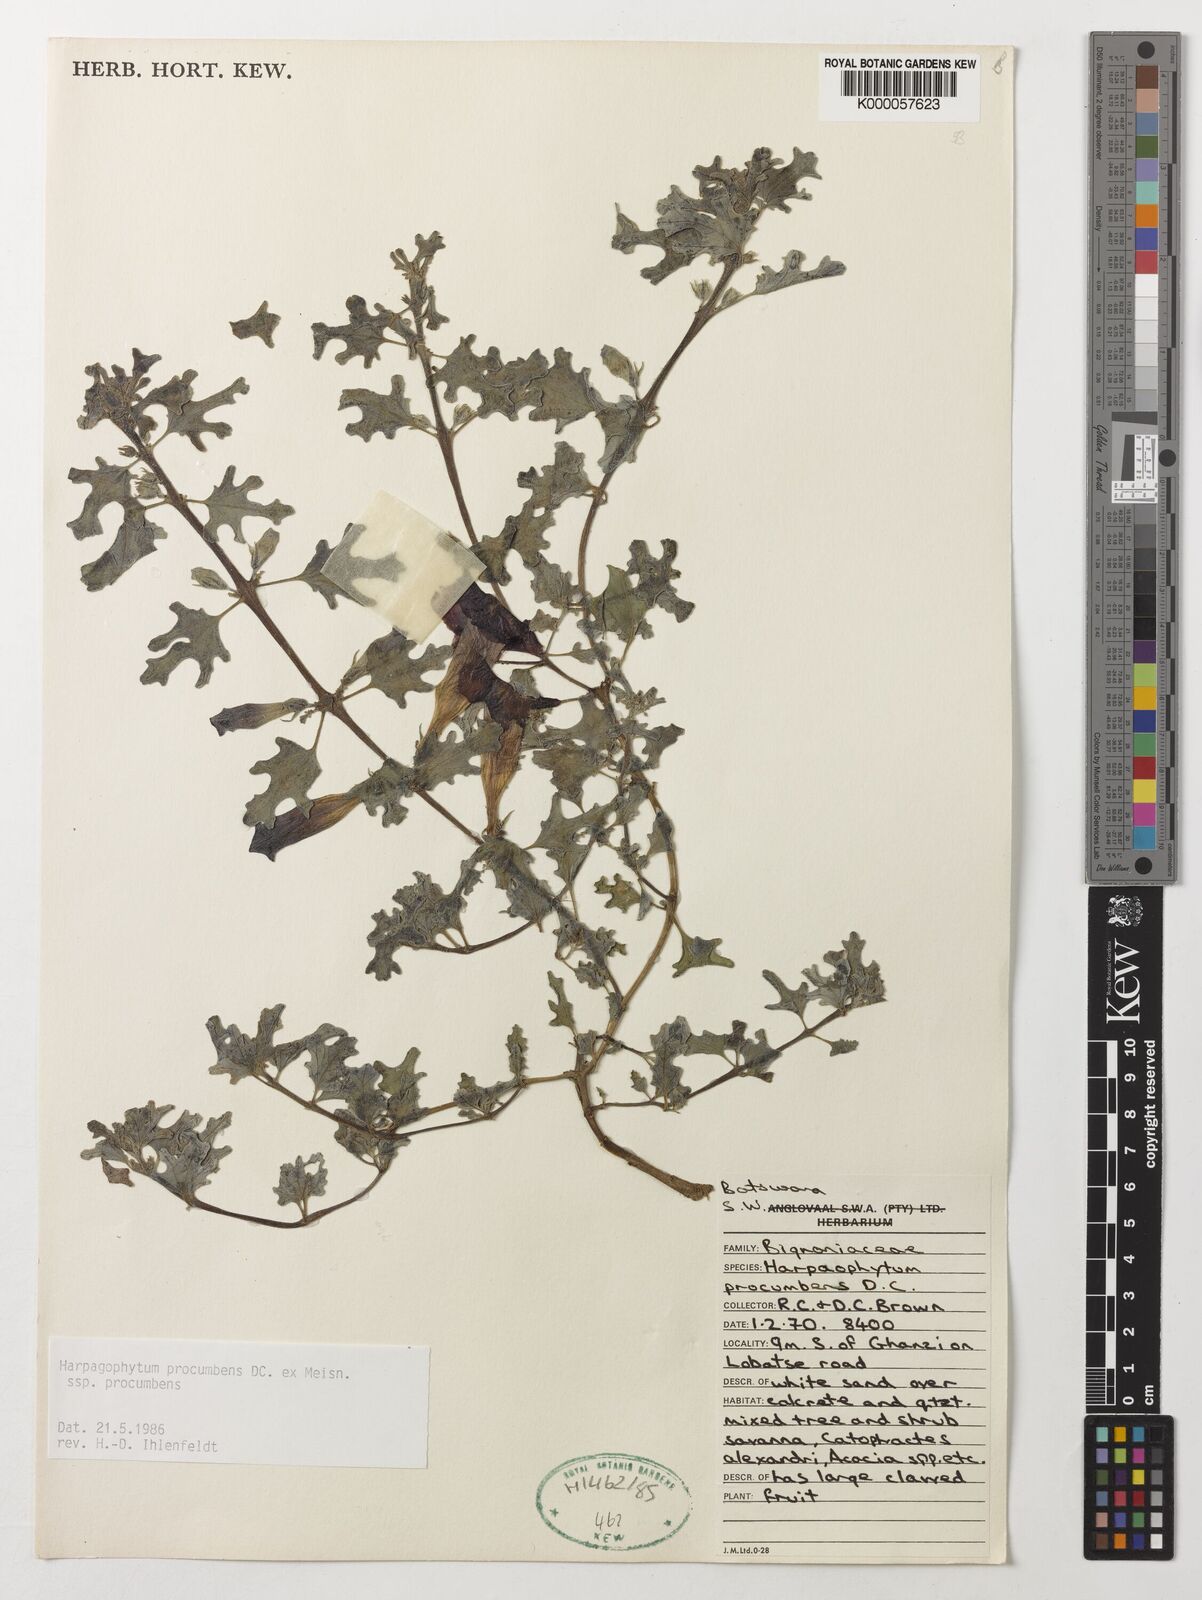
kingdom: Plantae
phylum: Tracheophyta
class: Magnoliopsida
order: Lamiales
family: Pedaliaceae
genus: Harpagophytum
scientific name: Harpagophytum procumbens
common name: Grappleplant
